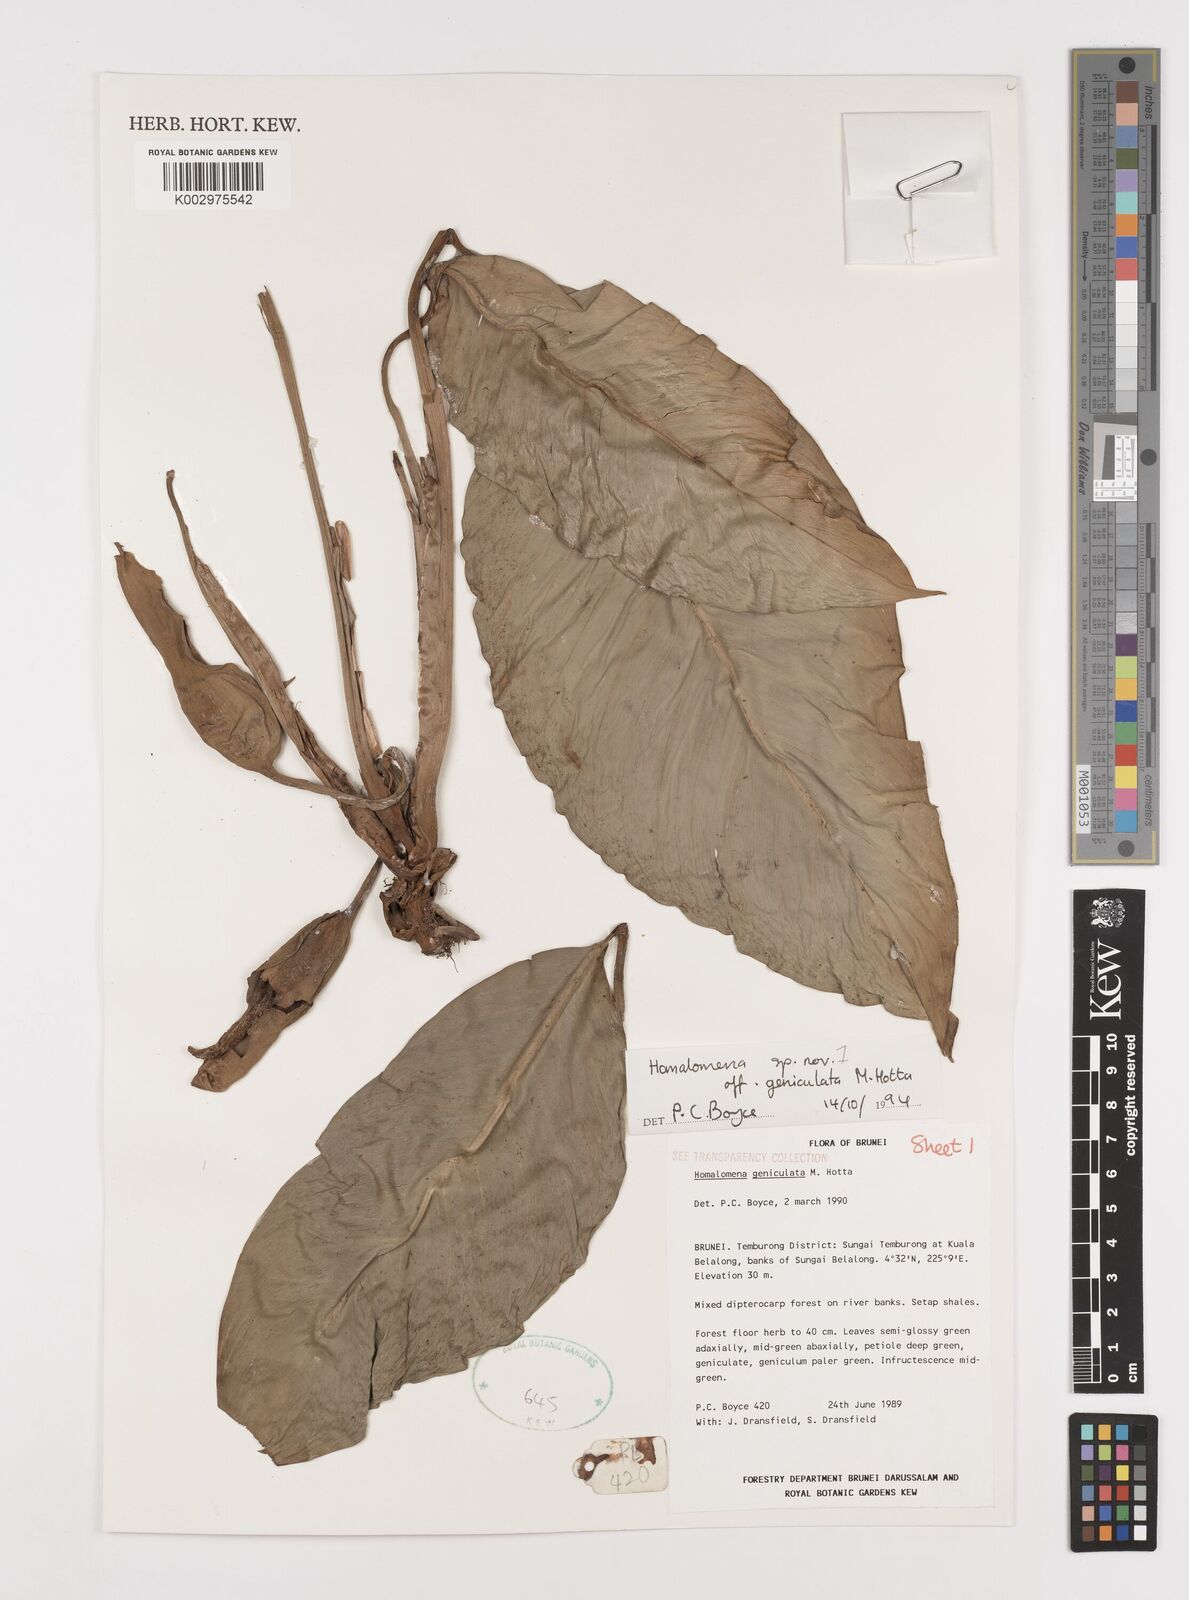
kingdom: Plantae
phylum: Tracheophyta
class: Liliopsida
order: Alismatales
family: Araceae
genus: Homalomena
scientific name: Homalomena punctulata
